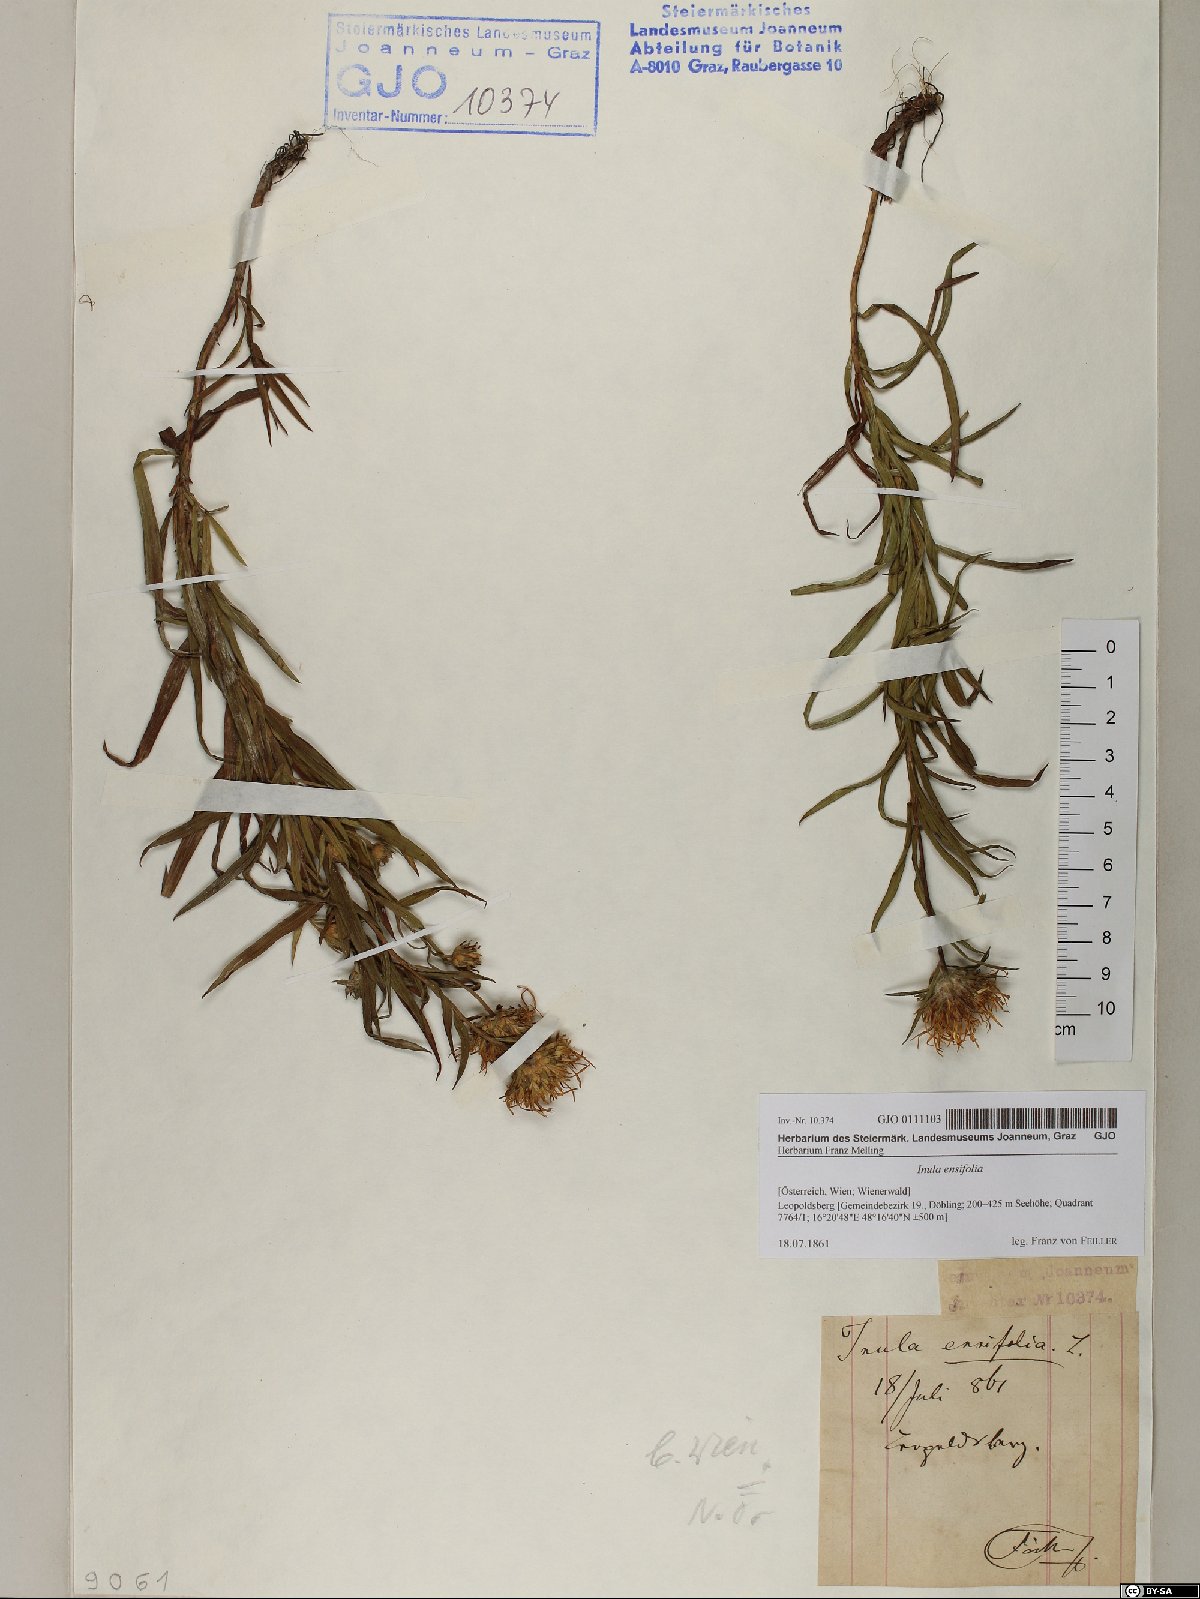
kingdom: Plantae
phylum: Tracheophyta
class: Magnoliopsida
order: Asterales
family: Asteraceae
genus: Pentanema
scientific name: Pentanema ensifolium
